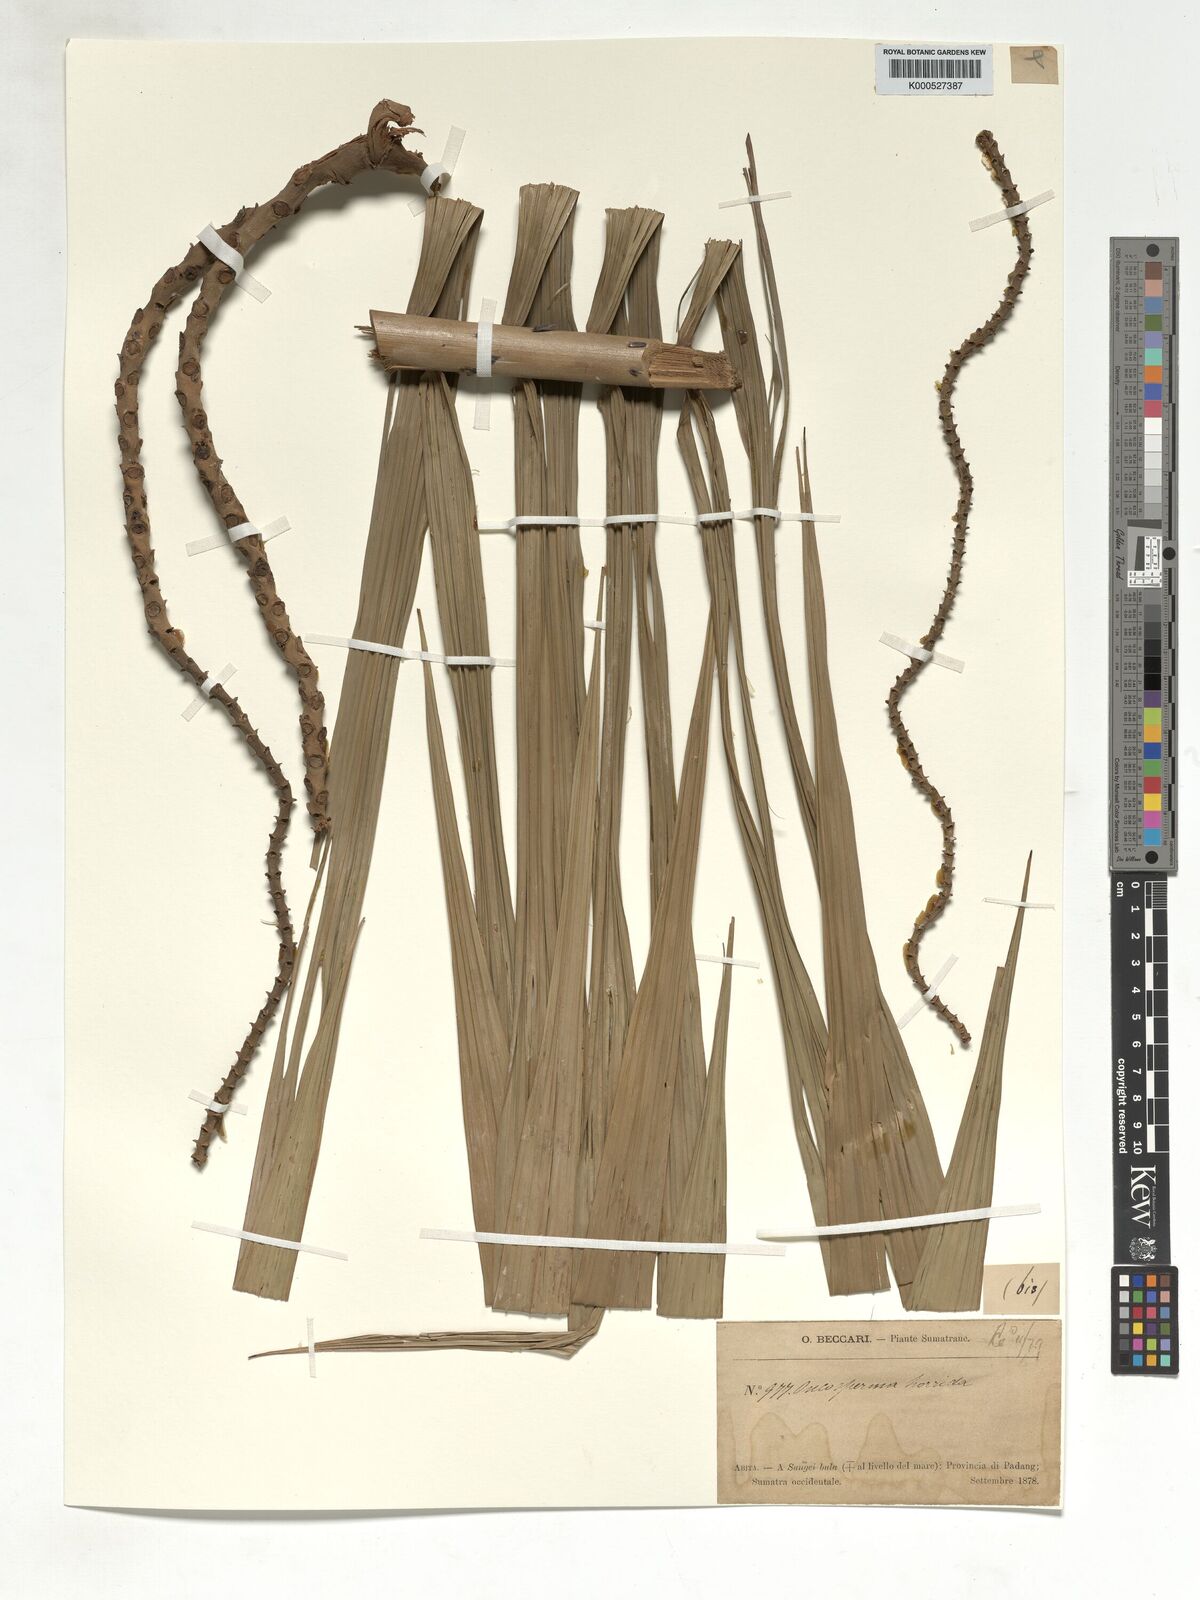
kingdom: Plantae
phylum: Tracheophyta
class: Liliopsida
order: Arecales
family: Arecaceae
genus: Oncosperma
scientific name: Oncosperma horridum
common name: Thorny palm
